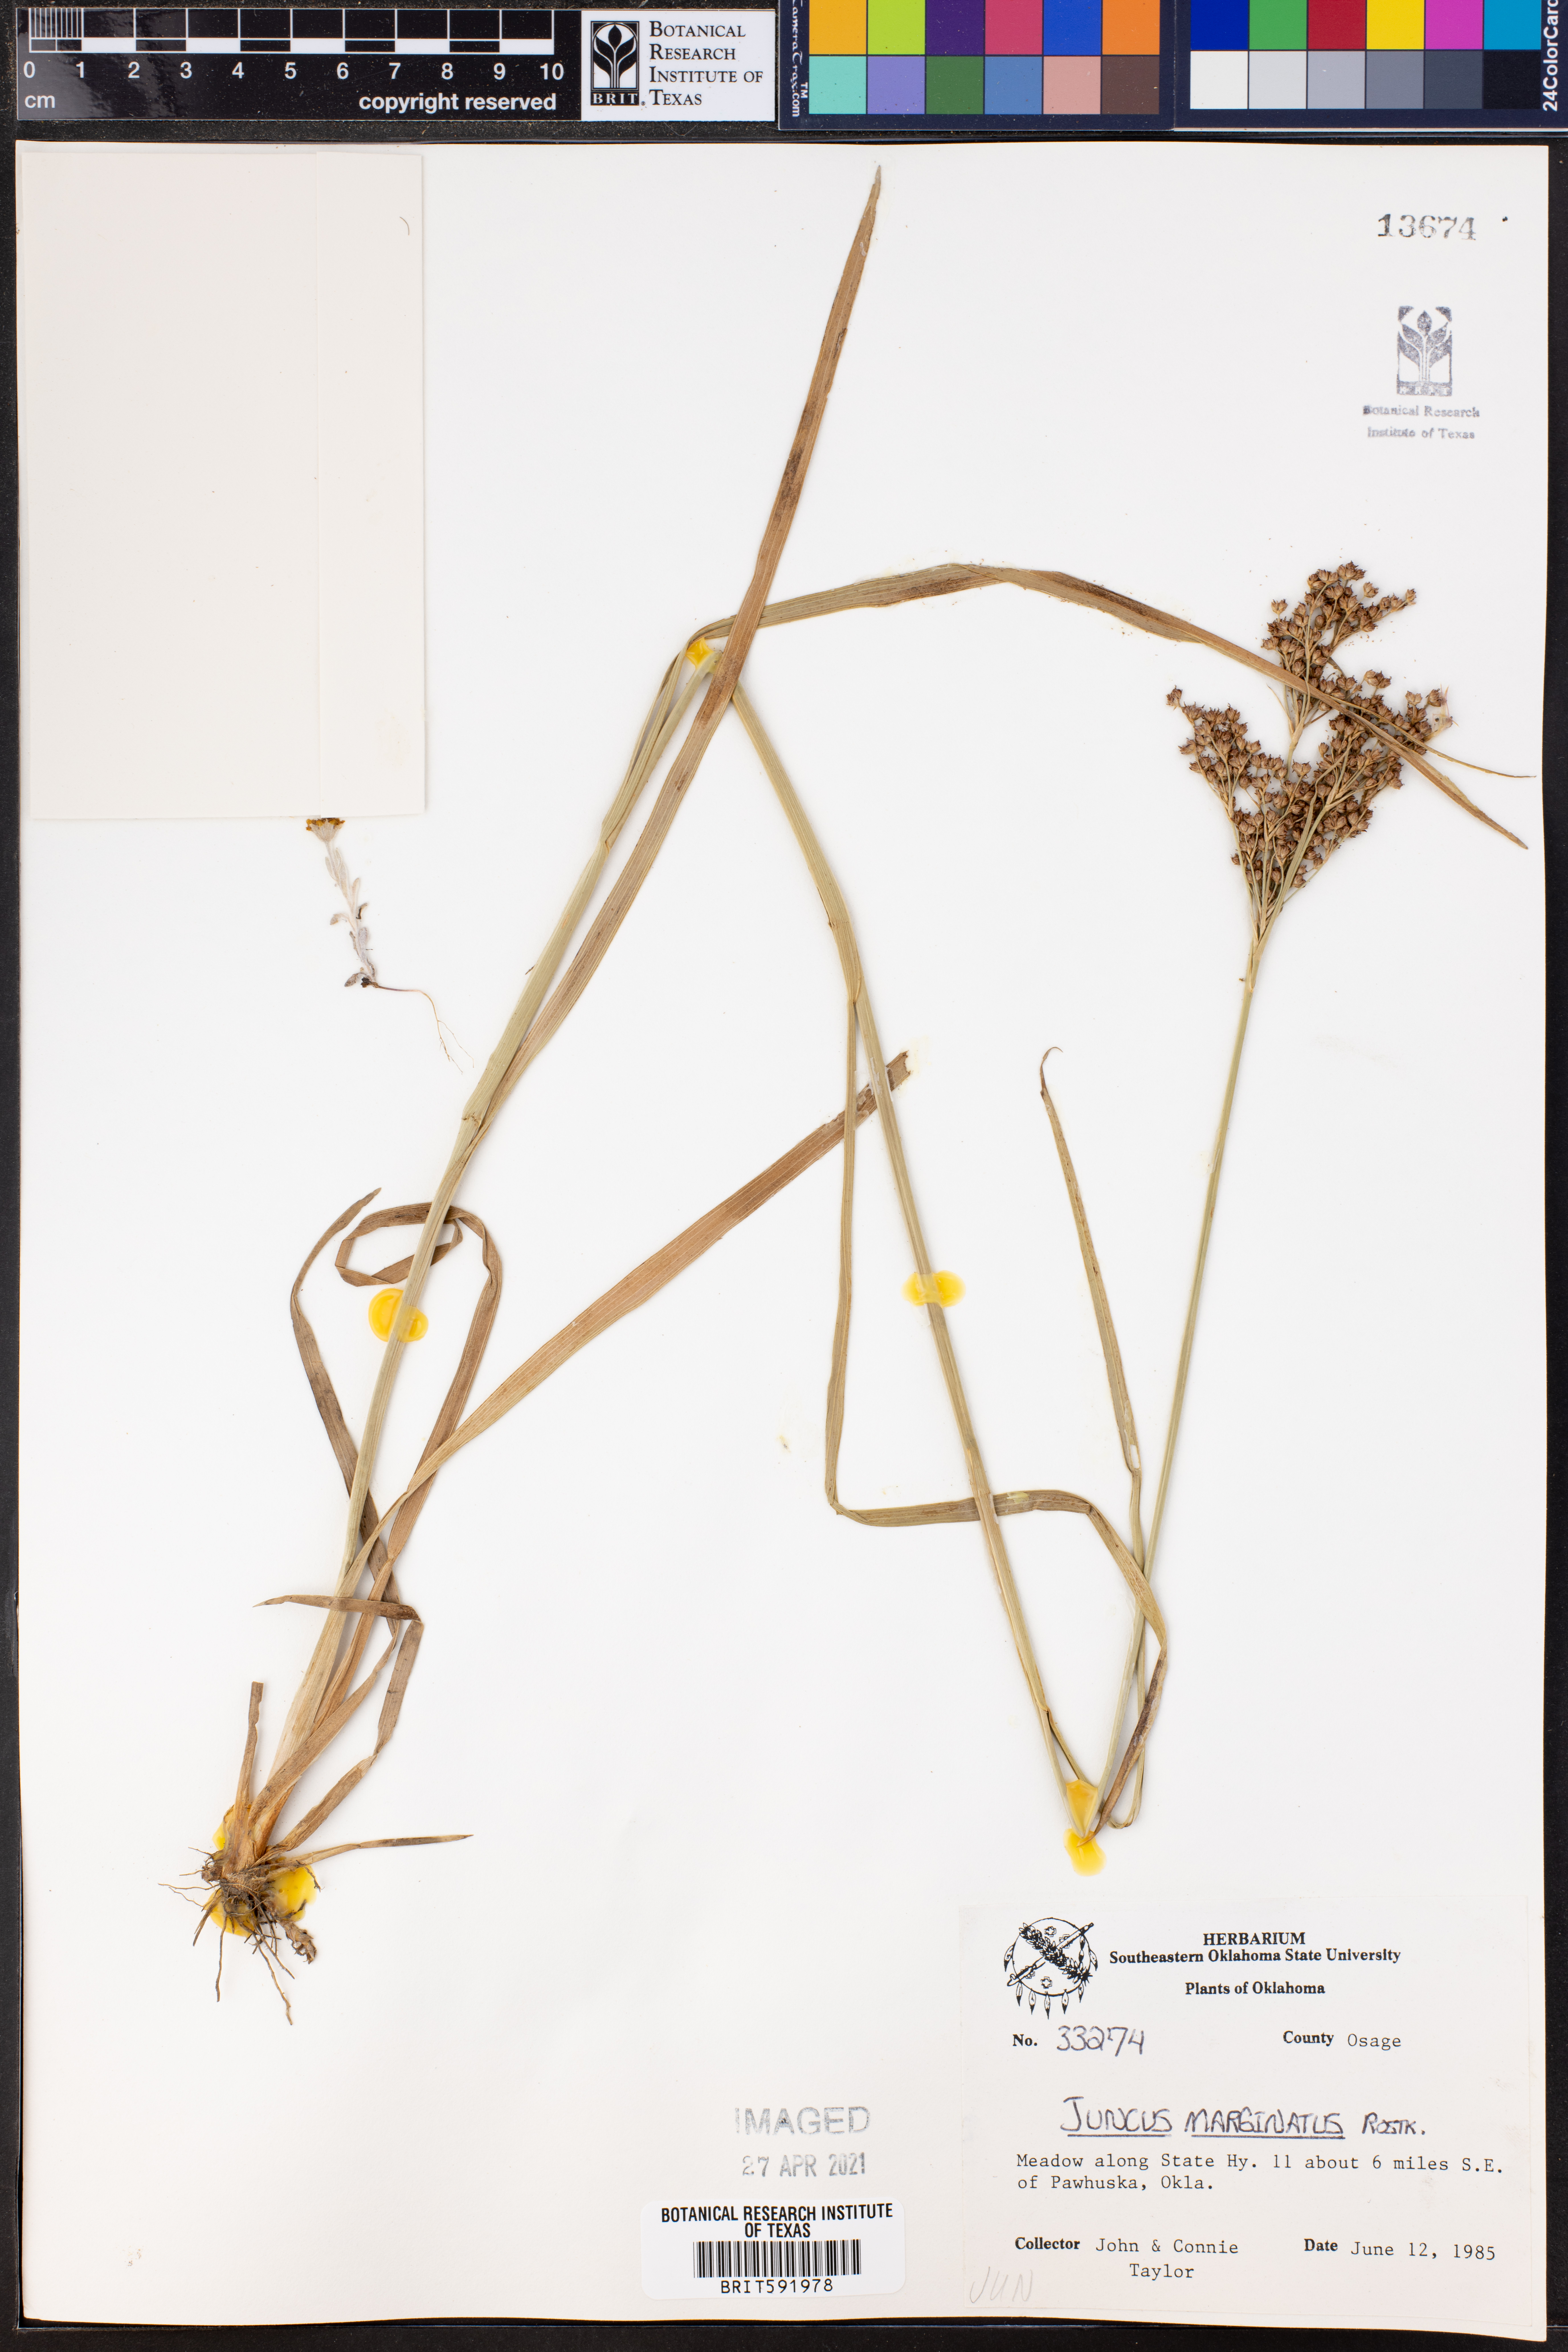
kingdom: Plantae
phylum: Tracheophyta
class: Liliopsida
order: Poales
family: Juncaceae
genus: Juncus
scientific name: Juncus marginatus
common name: Grass-leaf rush
